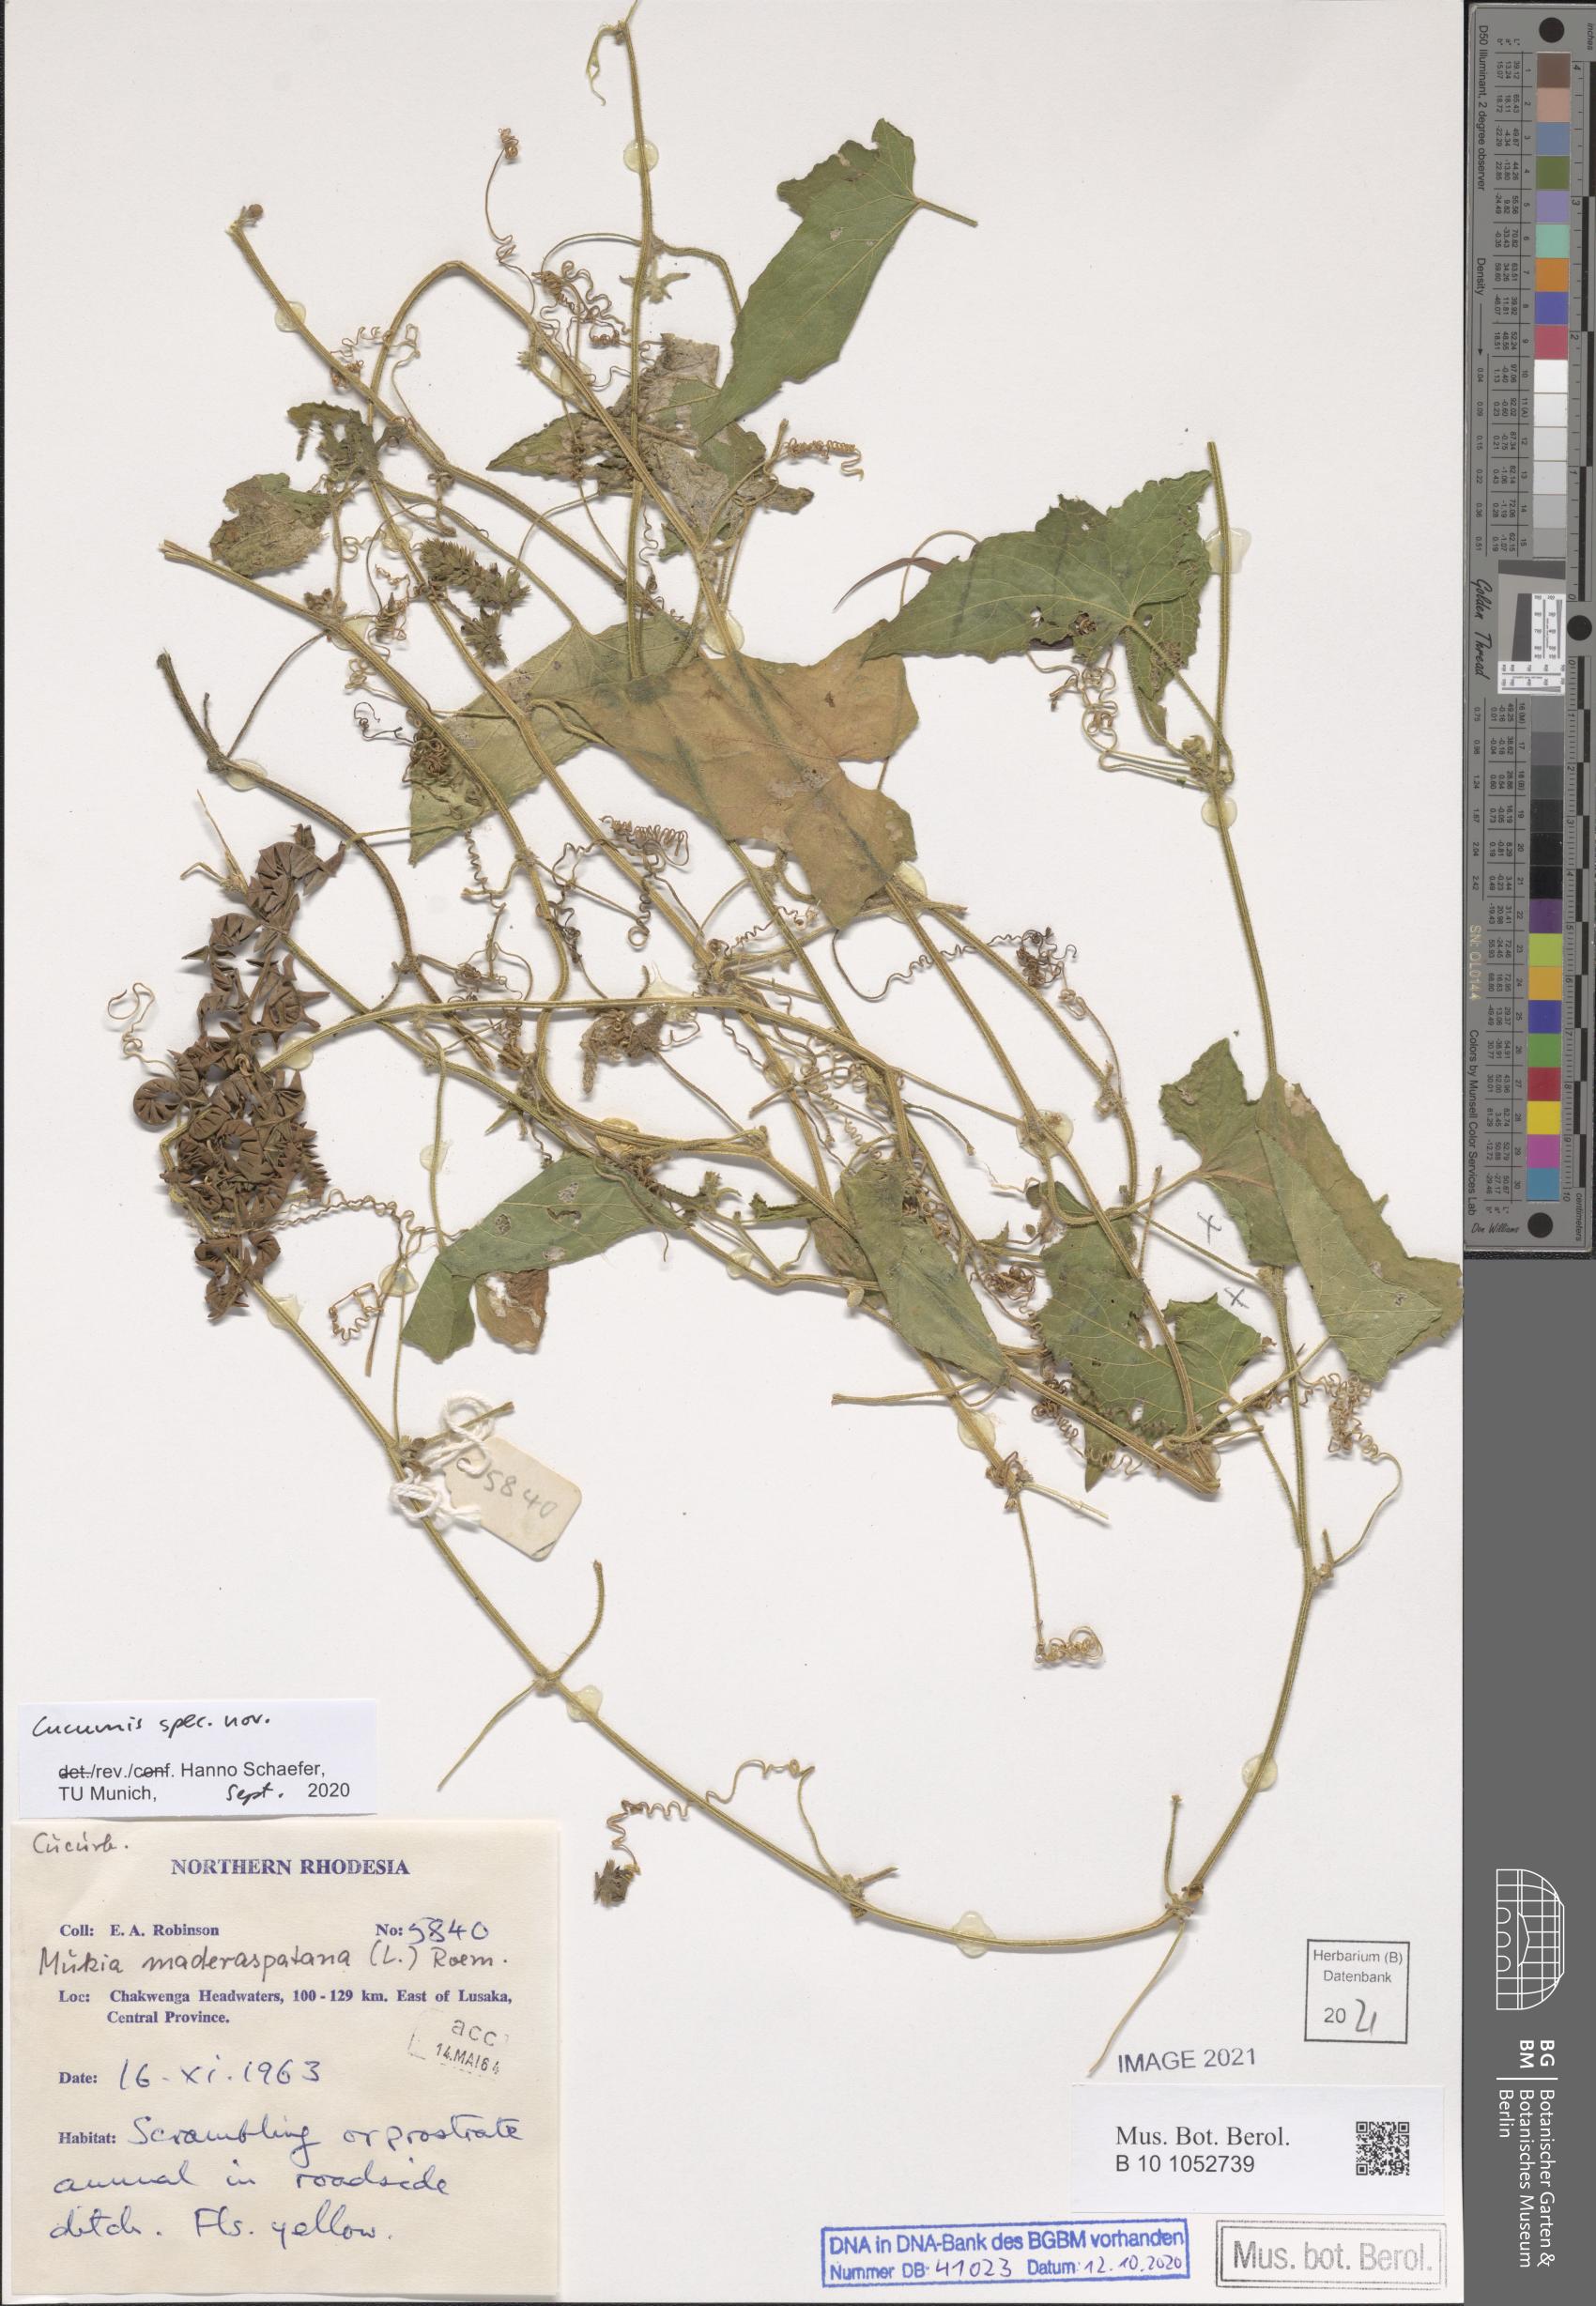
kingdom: Plantae
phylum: Tracheophyta
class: Magnoliopsida
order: Cucurbitales
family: Cucurbitaceae
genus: Cucumis
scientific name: Cucumis
